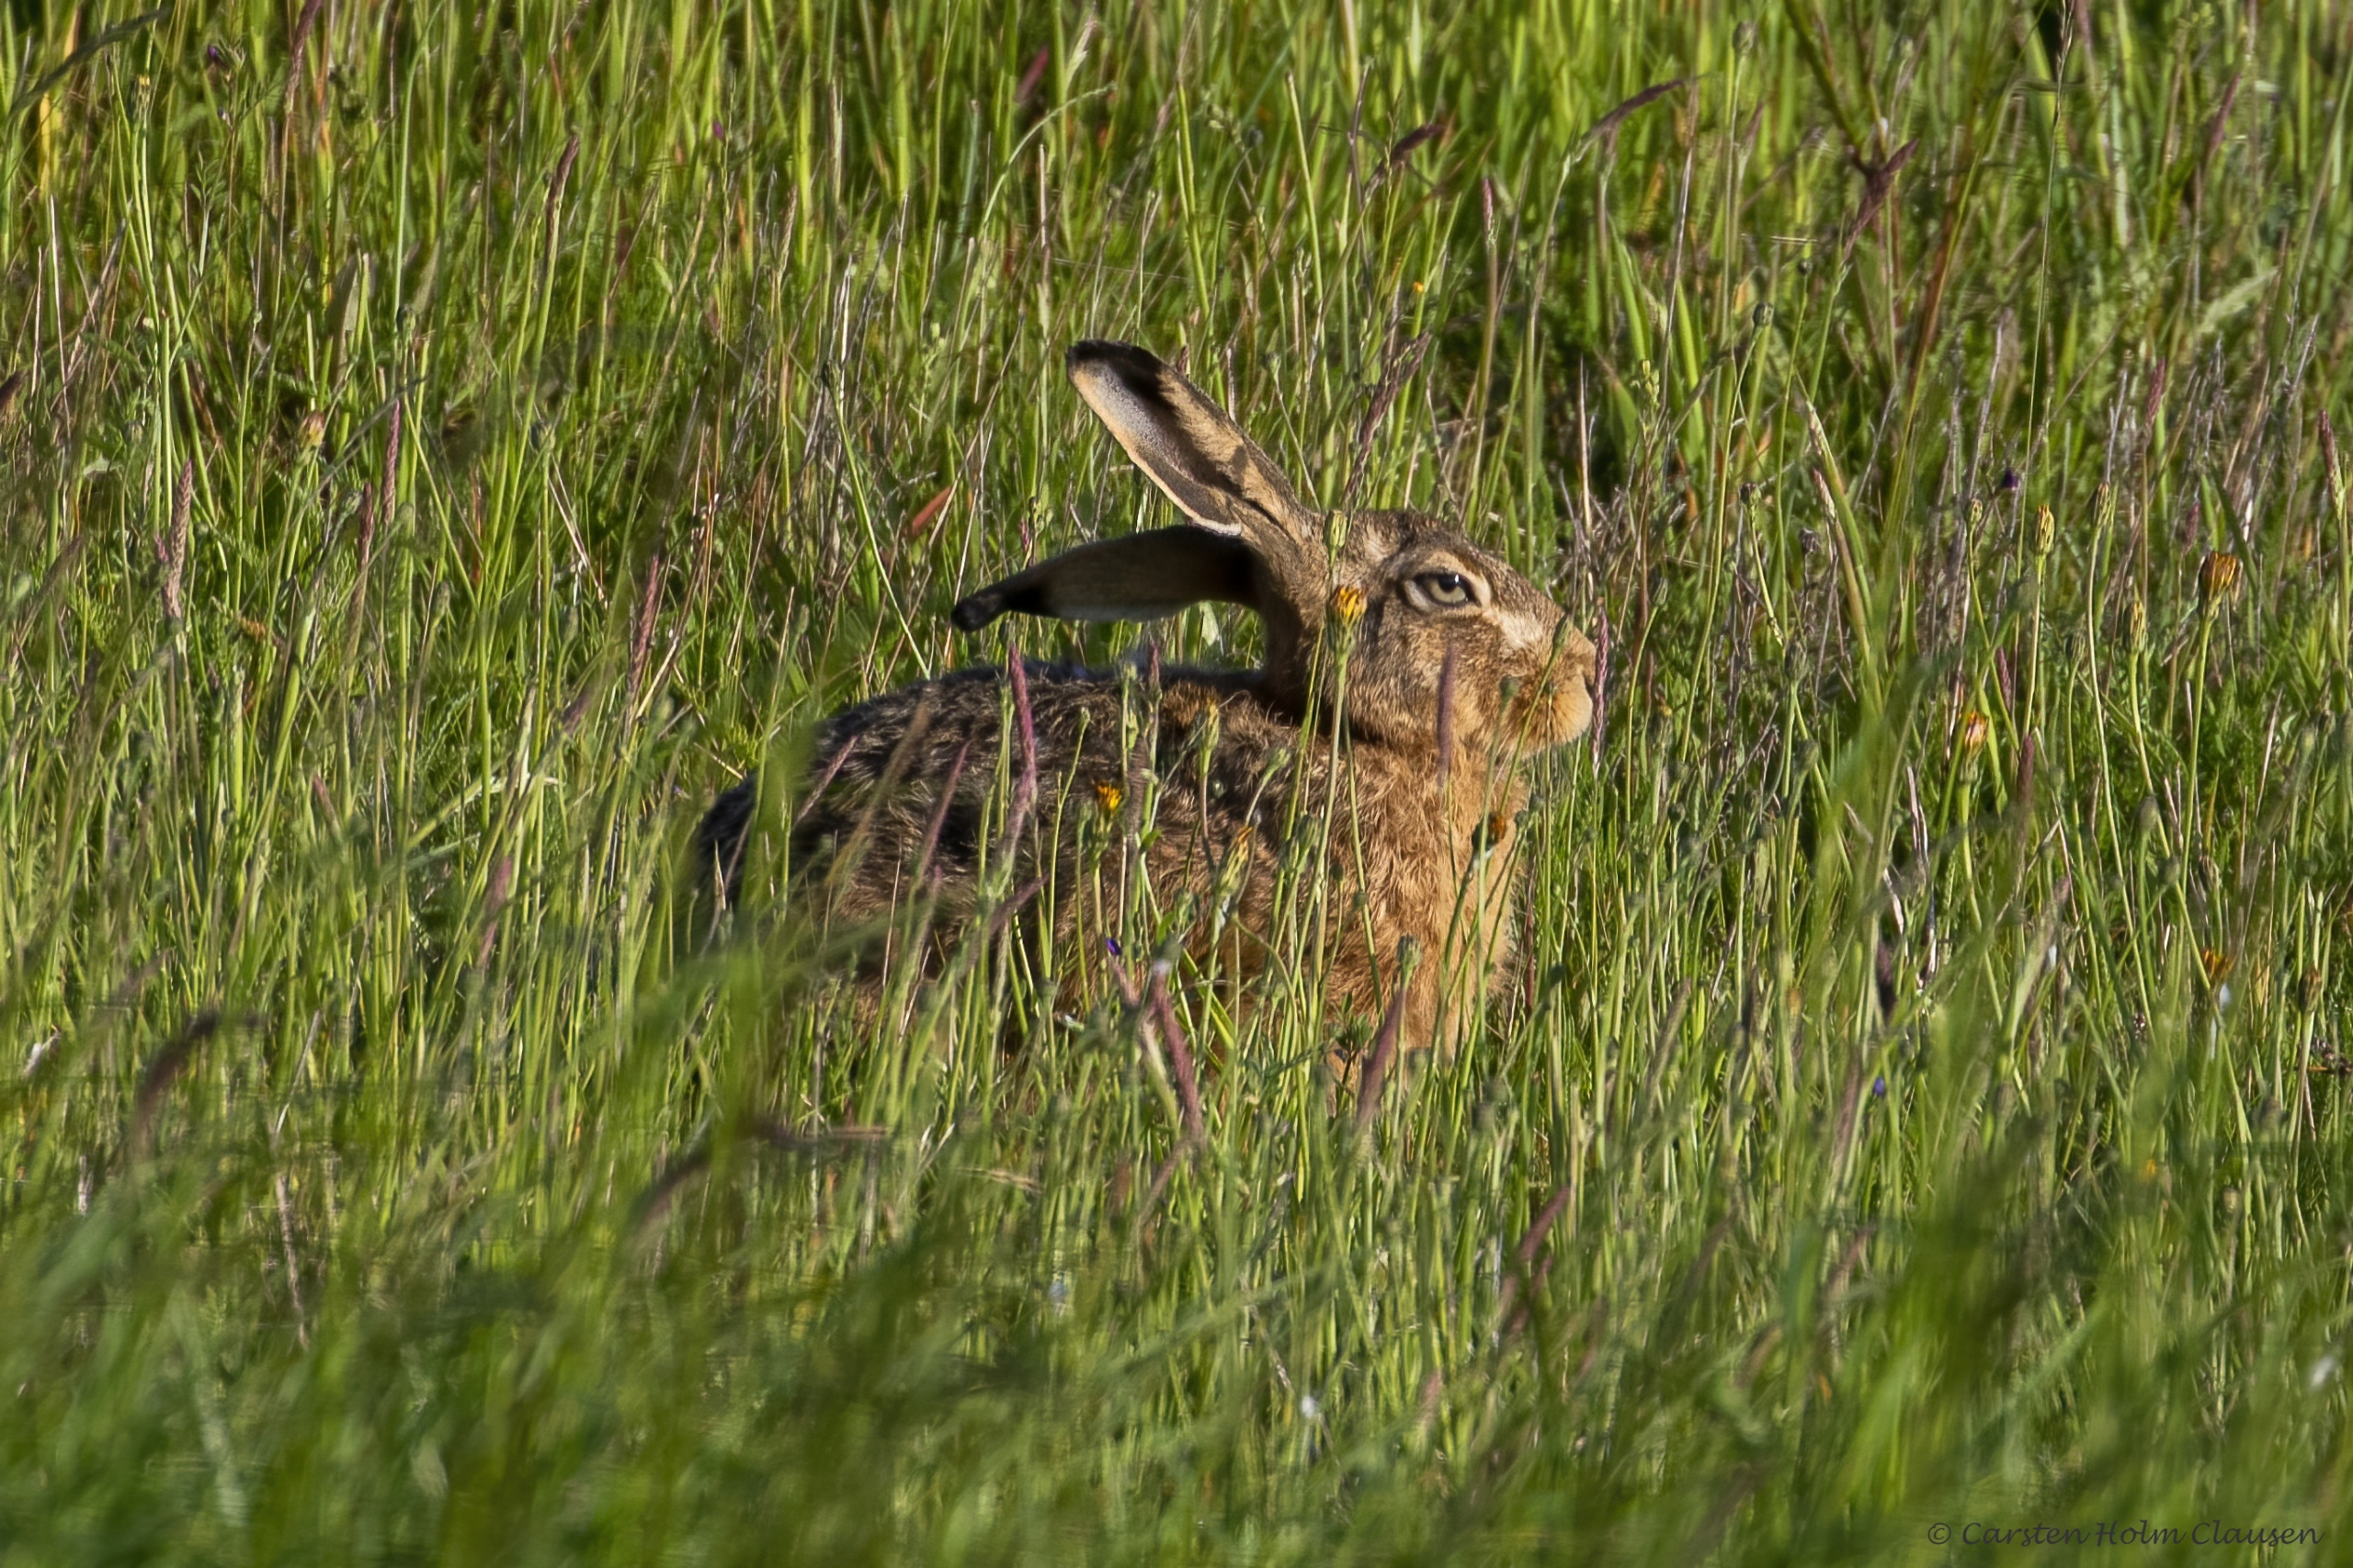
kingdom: Animalia
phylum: Chordata
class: Mammalia
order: Lagomorpha
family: Leporidae
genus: Lepus
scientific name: Lepus europaeus
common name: Hare
